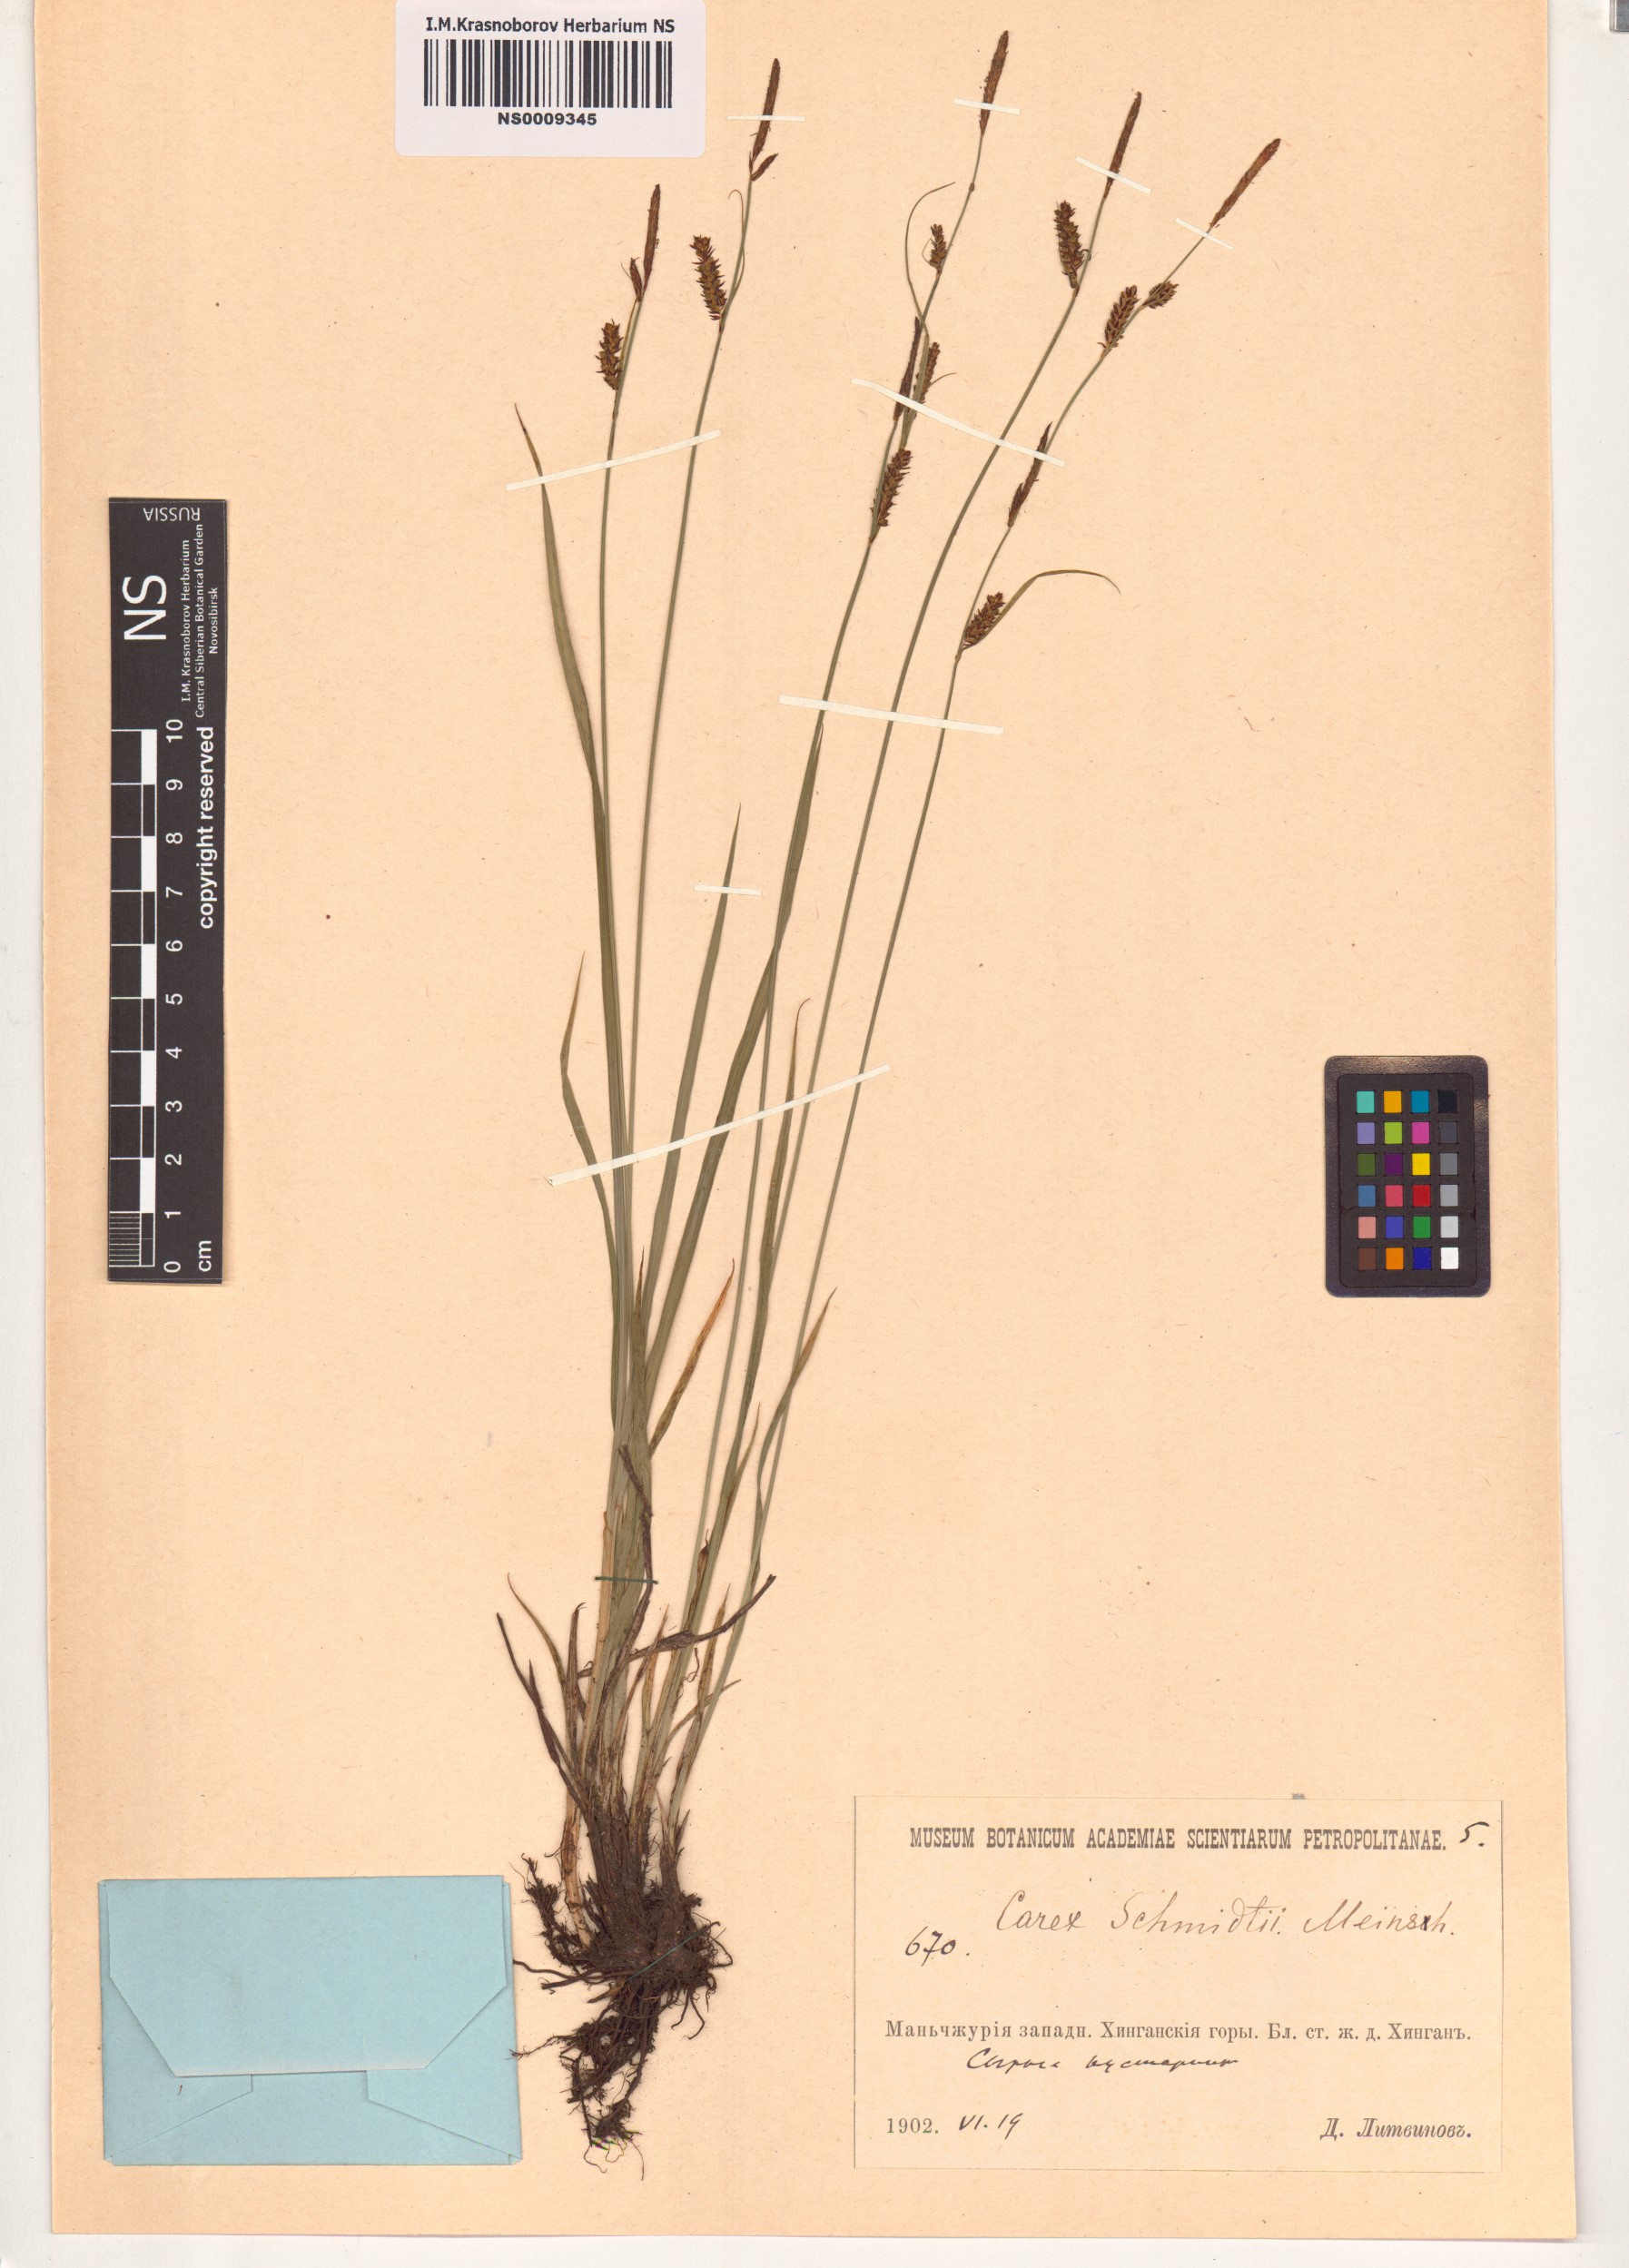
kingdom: Plantae
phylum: Tracheophyta
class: Liliopsida
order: Poales
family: Cyperaceae
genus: Carex
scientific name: Carex schmidtii
